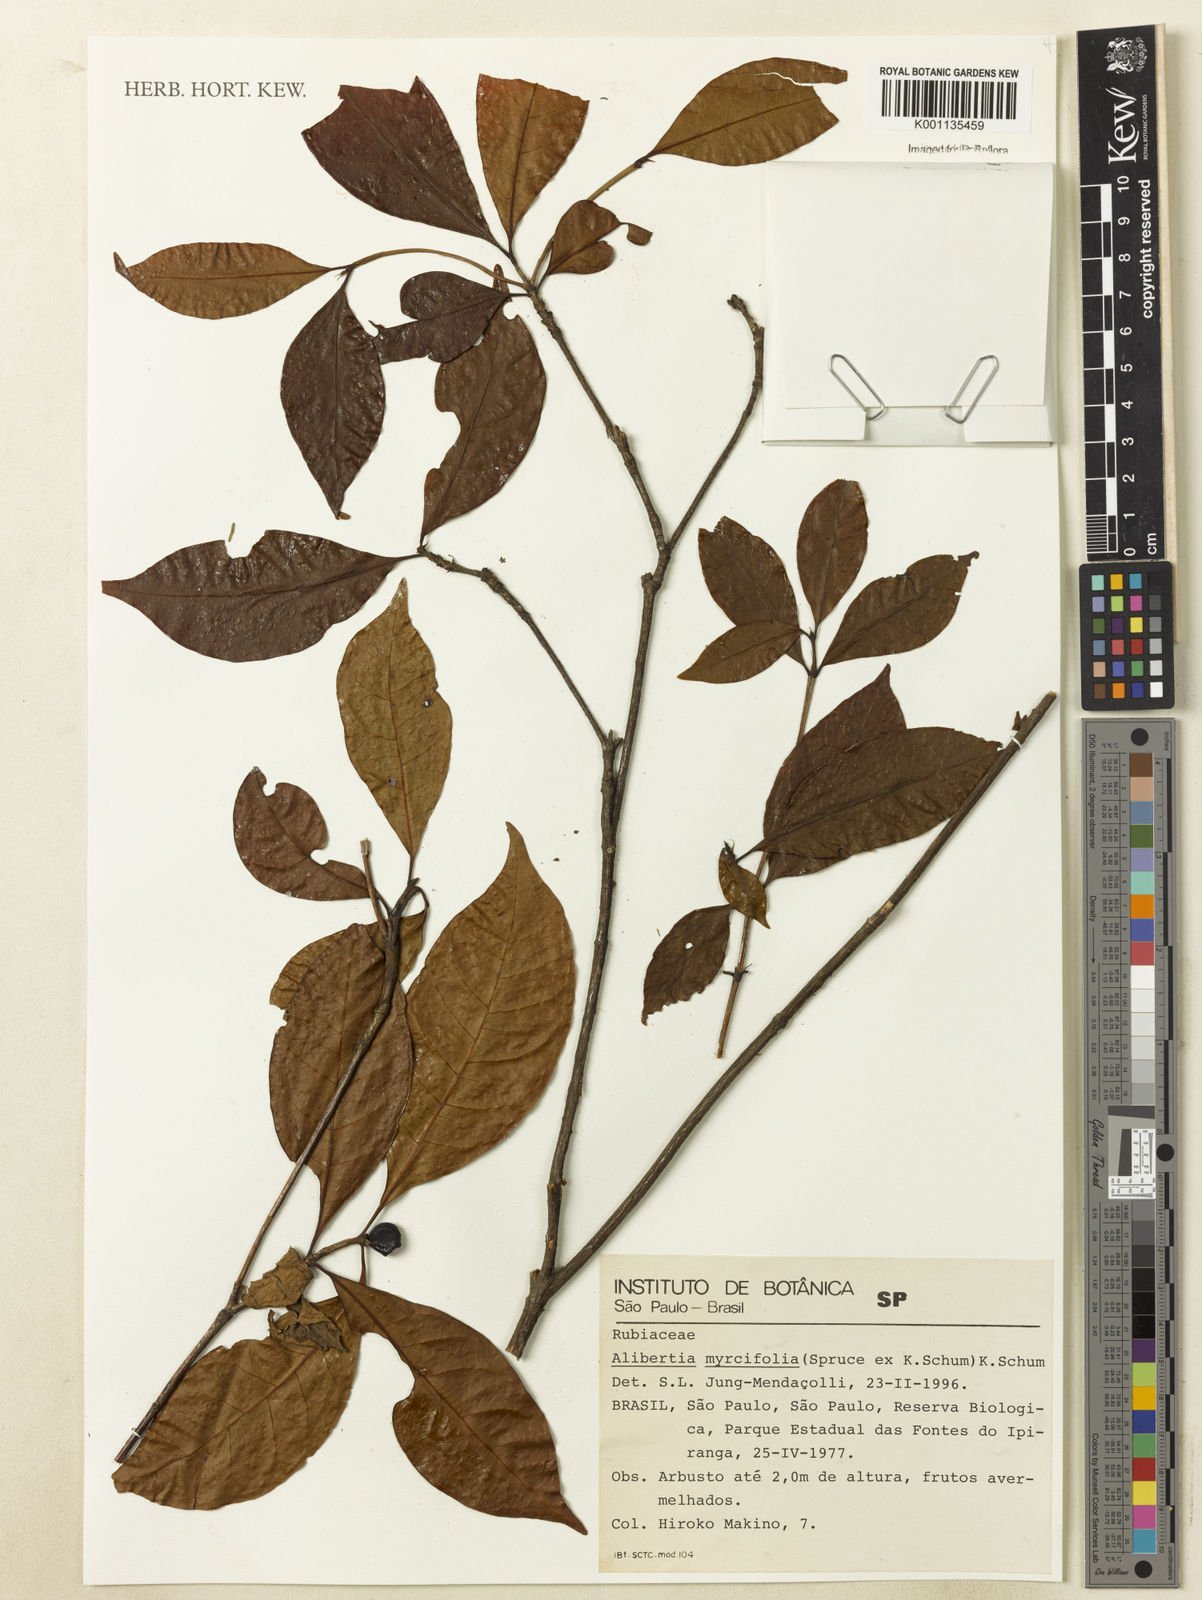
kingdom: Plantae
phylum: Tracheophyta
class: Magnoliopsida
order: Gentianales
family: Rubiaceae
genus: Cordiera
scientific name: Cordiera myrciifolia
